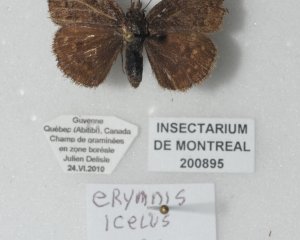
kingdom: Animalia
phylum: Arthropoda
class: Insecta
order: Lepidoptera
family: Hesperiidae
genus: Erynnis
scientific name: Erynnis icelus
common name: Dreamy Duskywing
